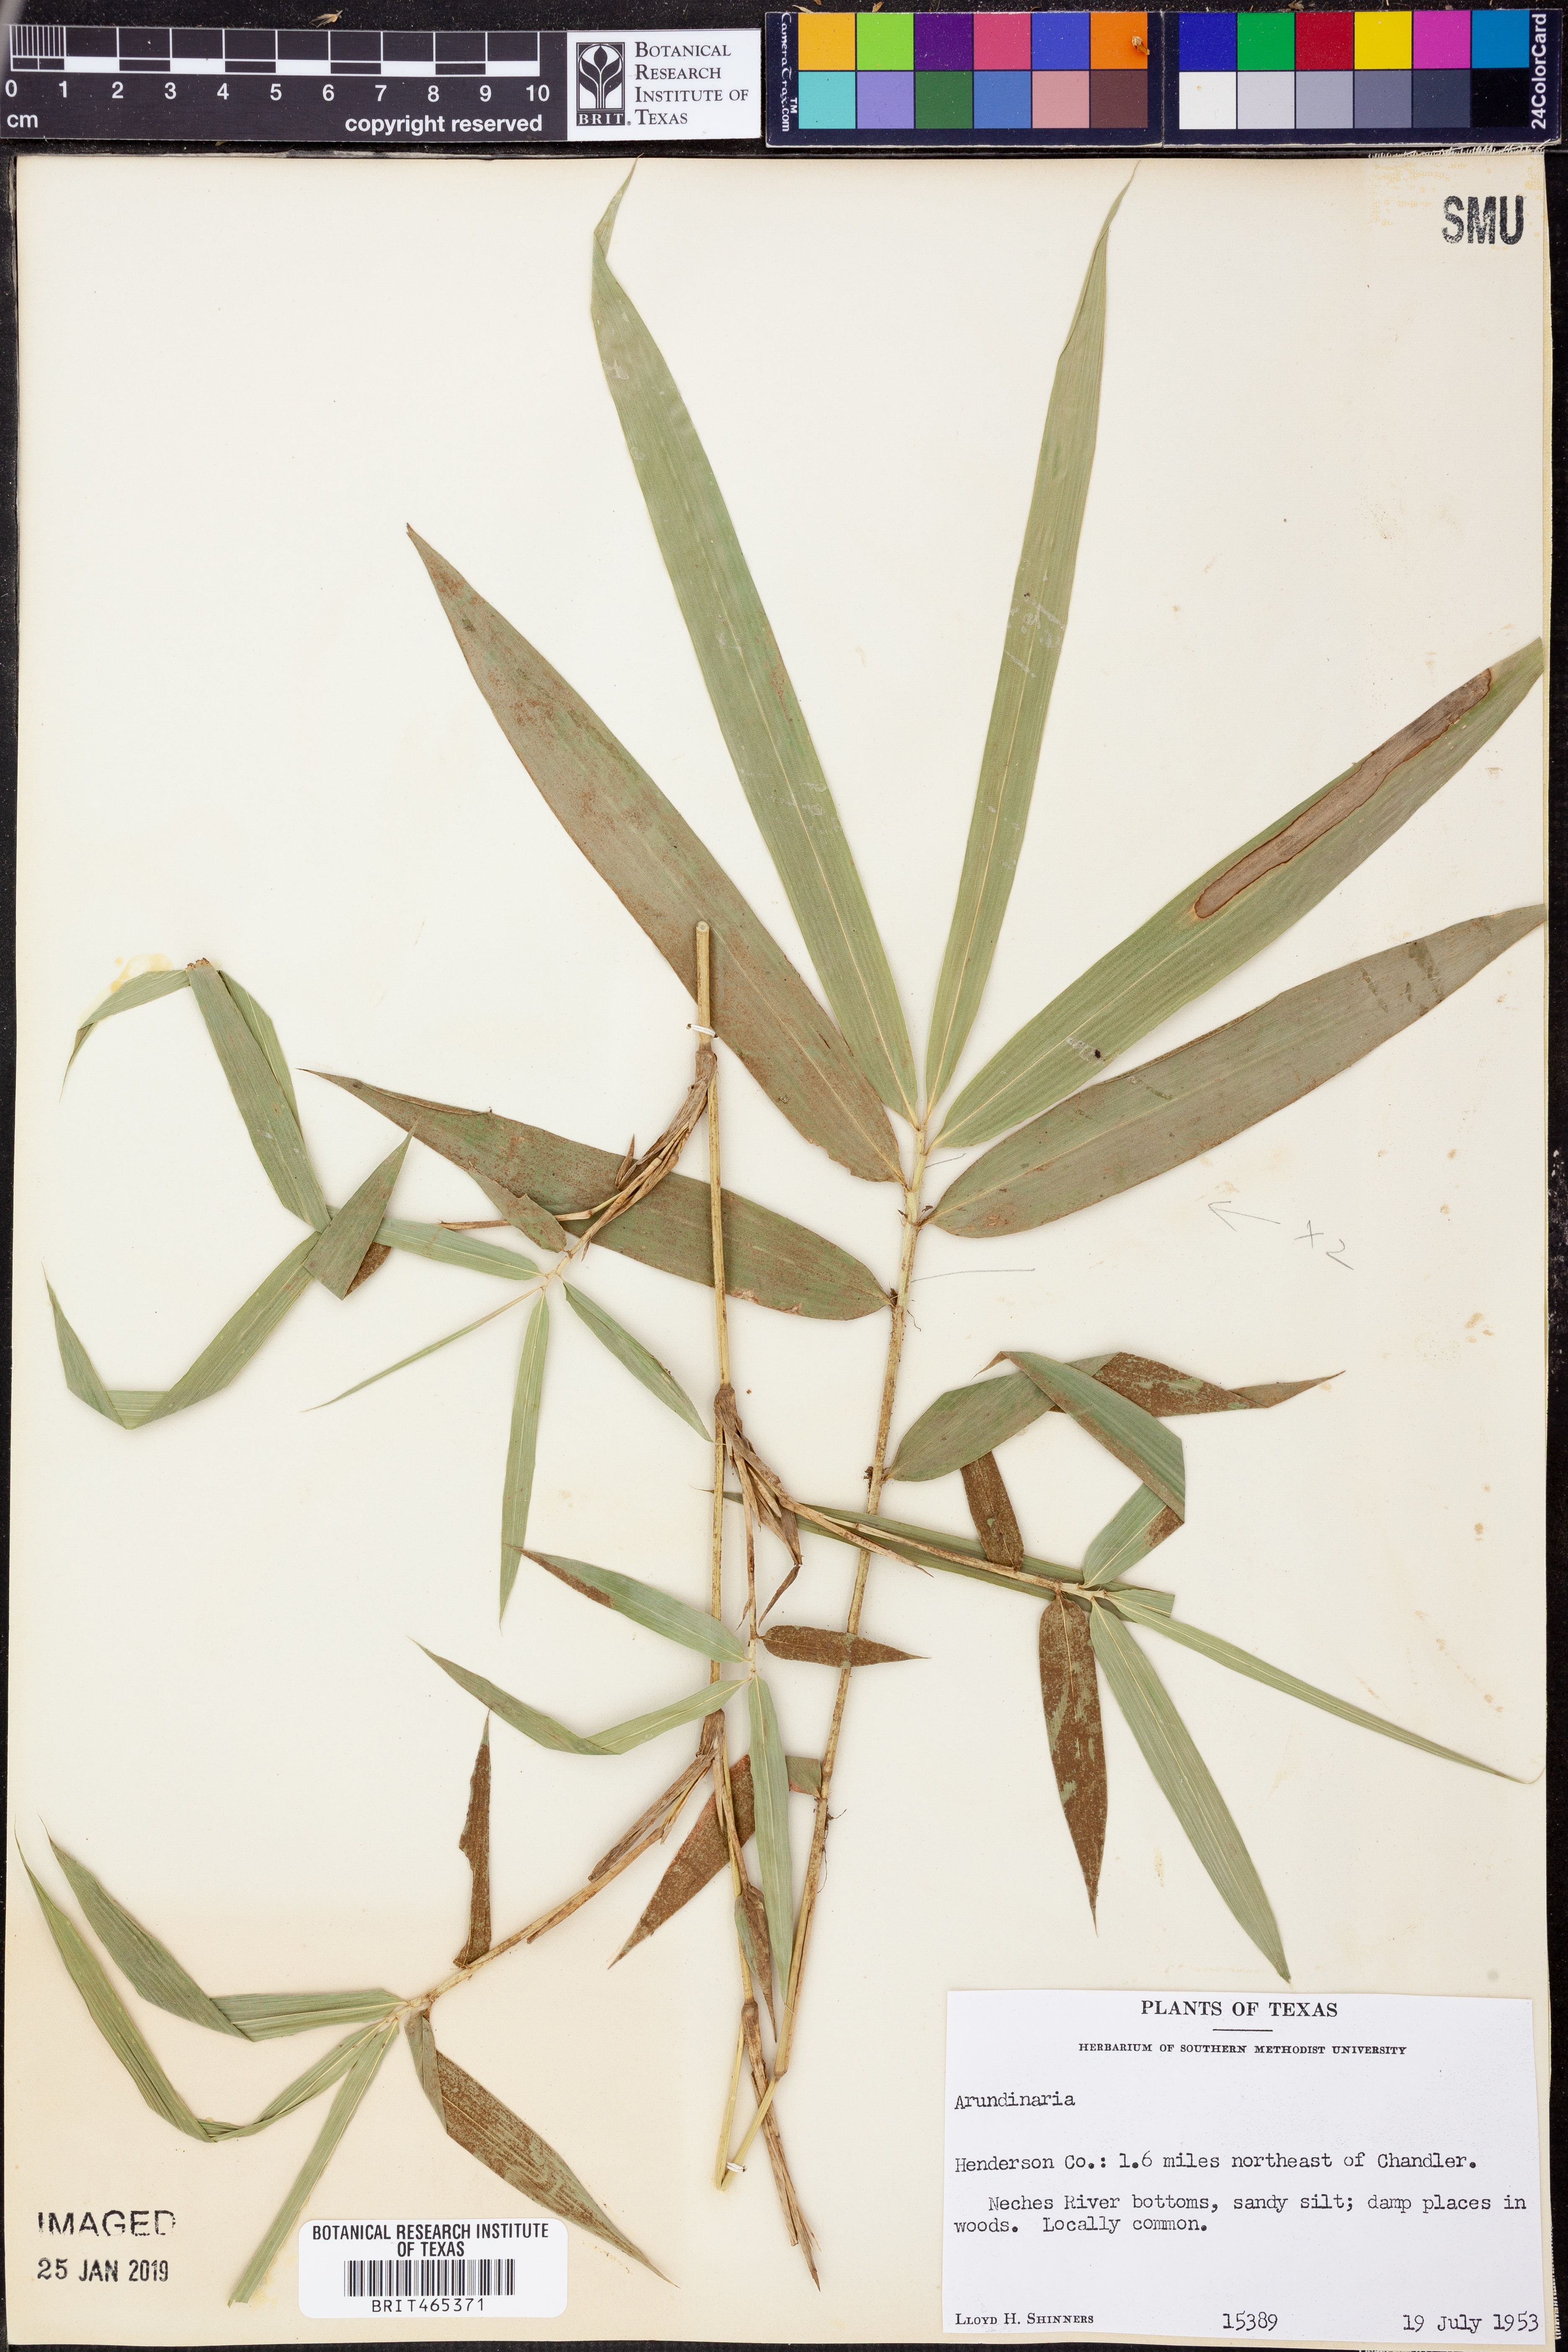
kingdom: Plantae
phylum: Tracheophyta
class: Liliopsida
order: Poales
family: Poaceae
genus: Arundinaria
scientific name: Arundinaria
